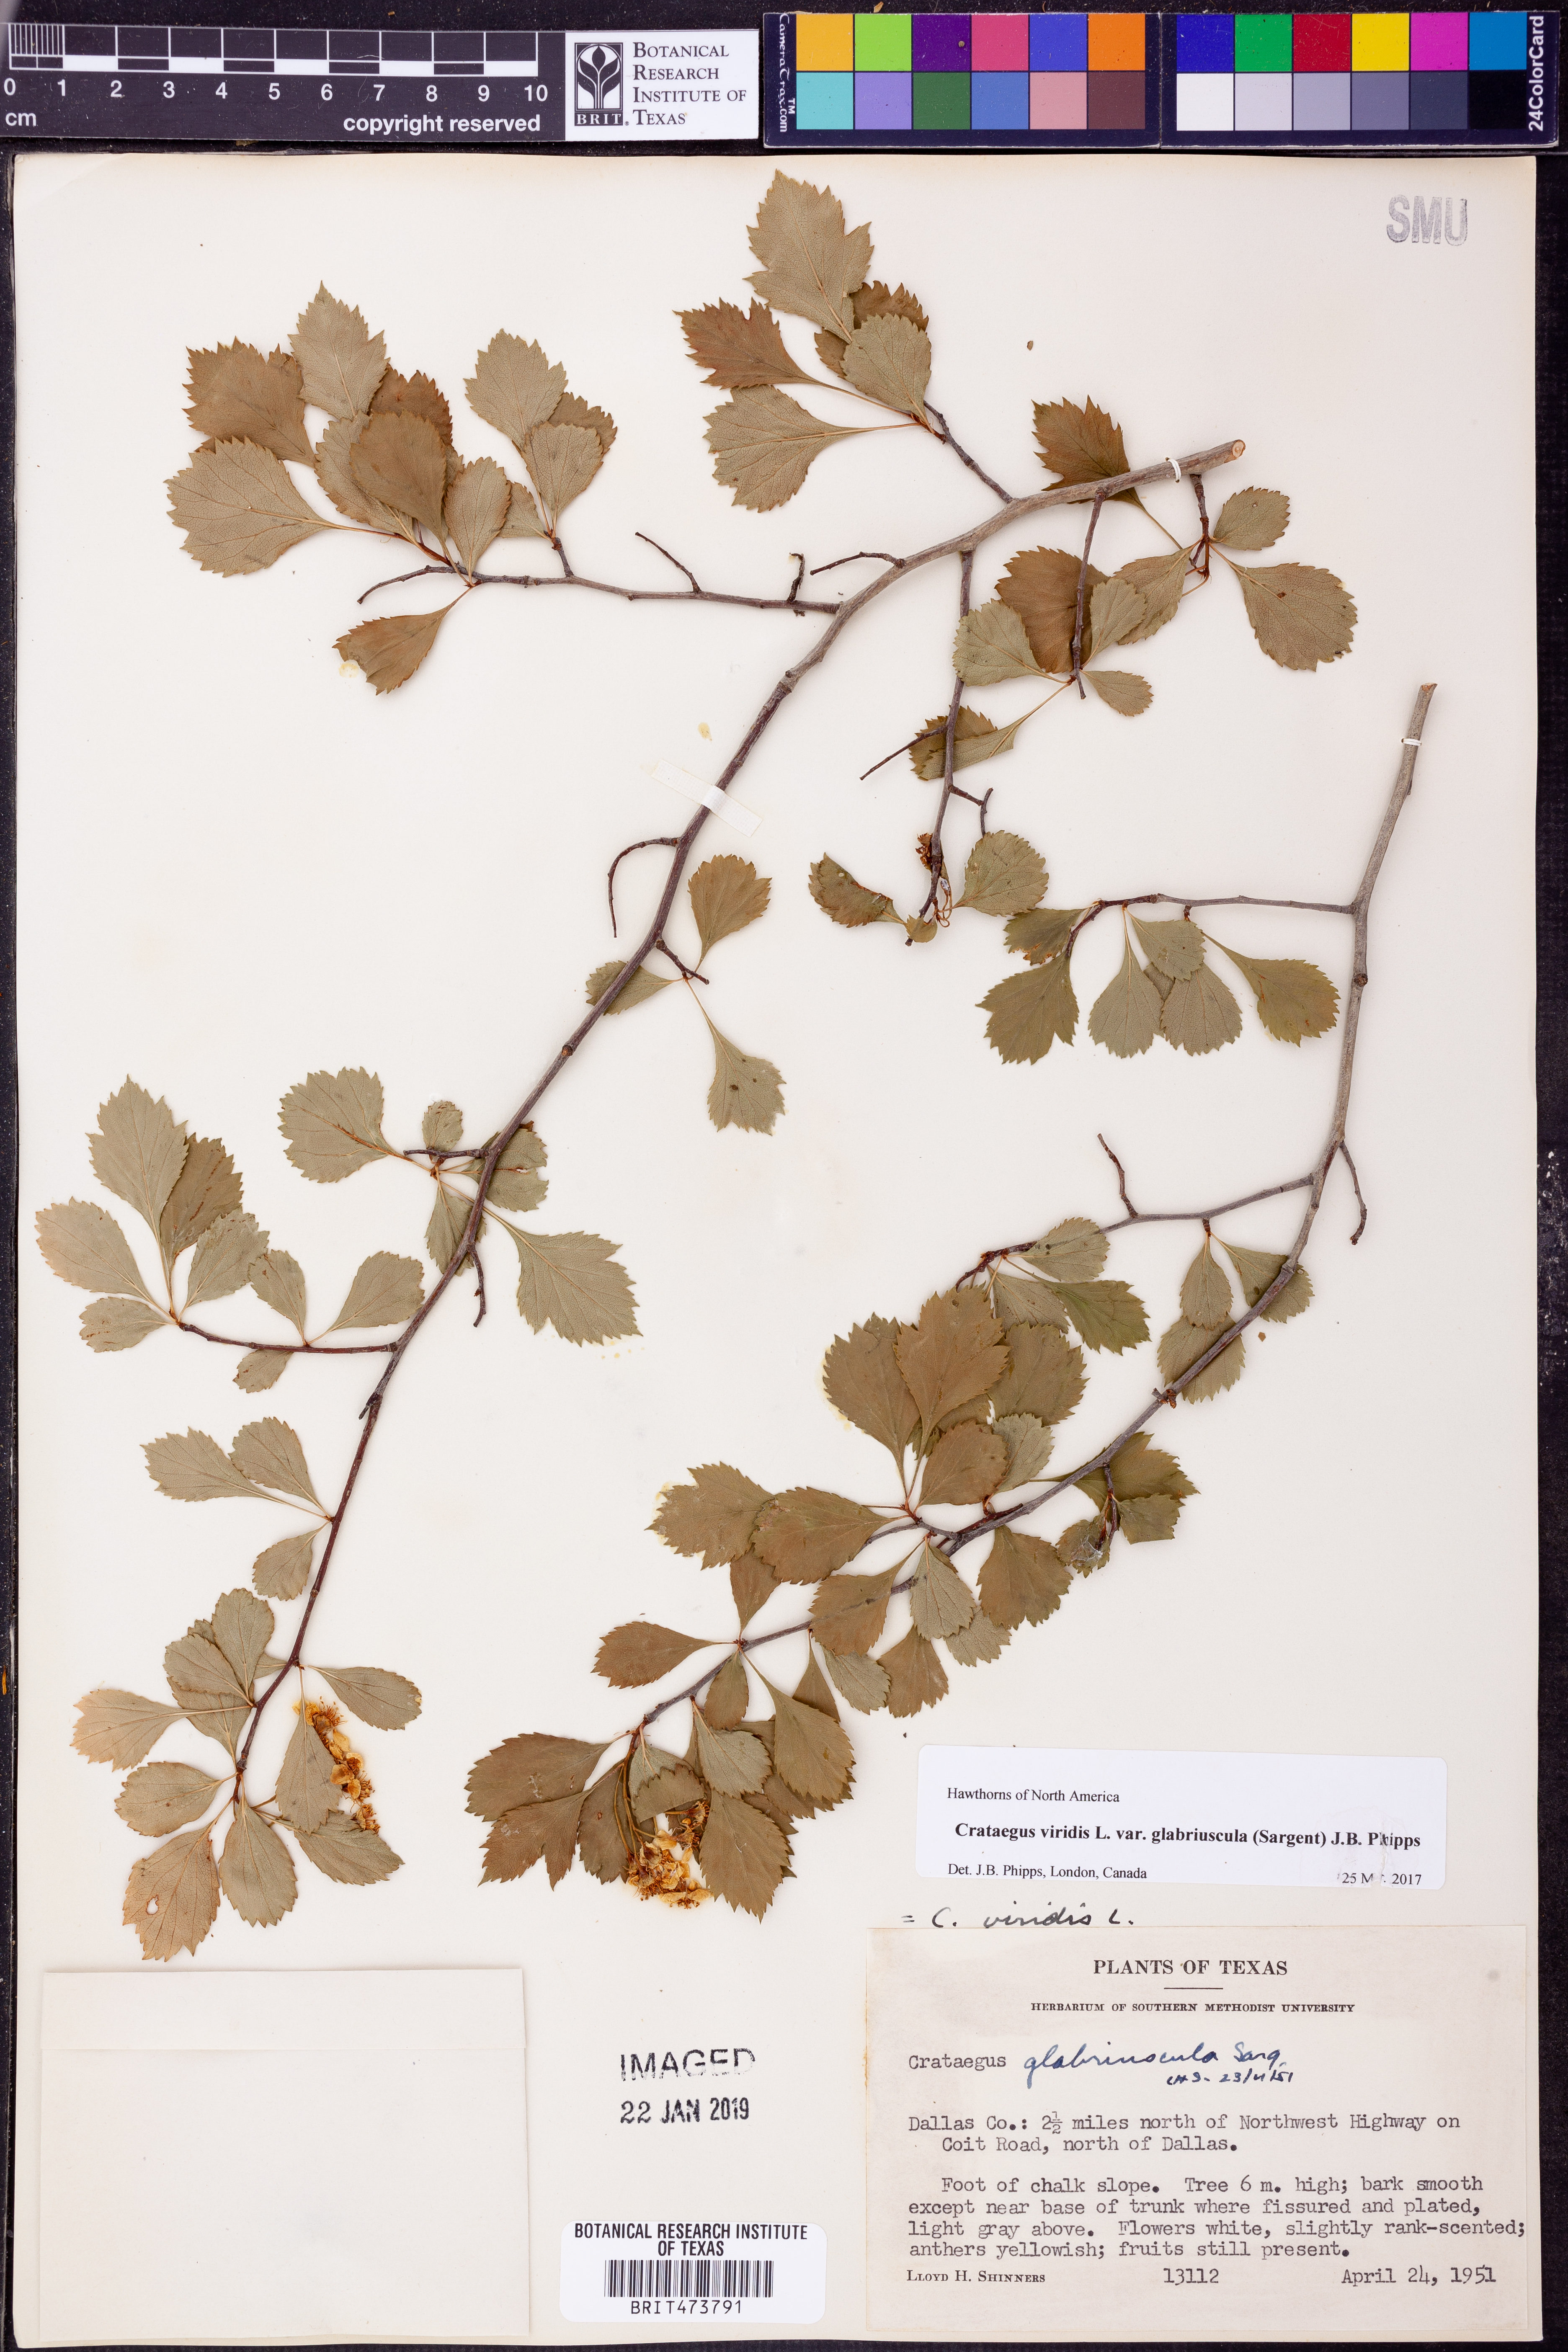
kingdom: Plantae
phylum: Tracheophyta
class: Magnoliopsida
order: Rosales
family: Rosaceae
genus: Crataegus
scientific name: Crataegus viridis
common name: Southernthorn
